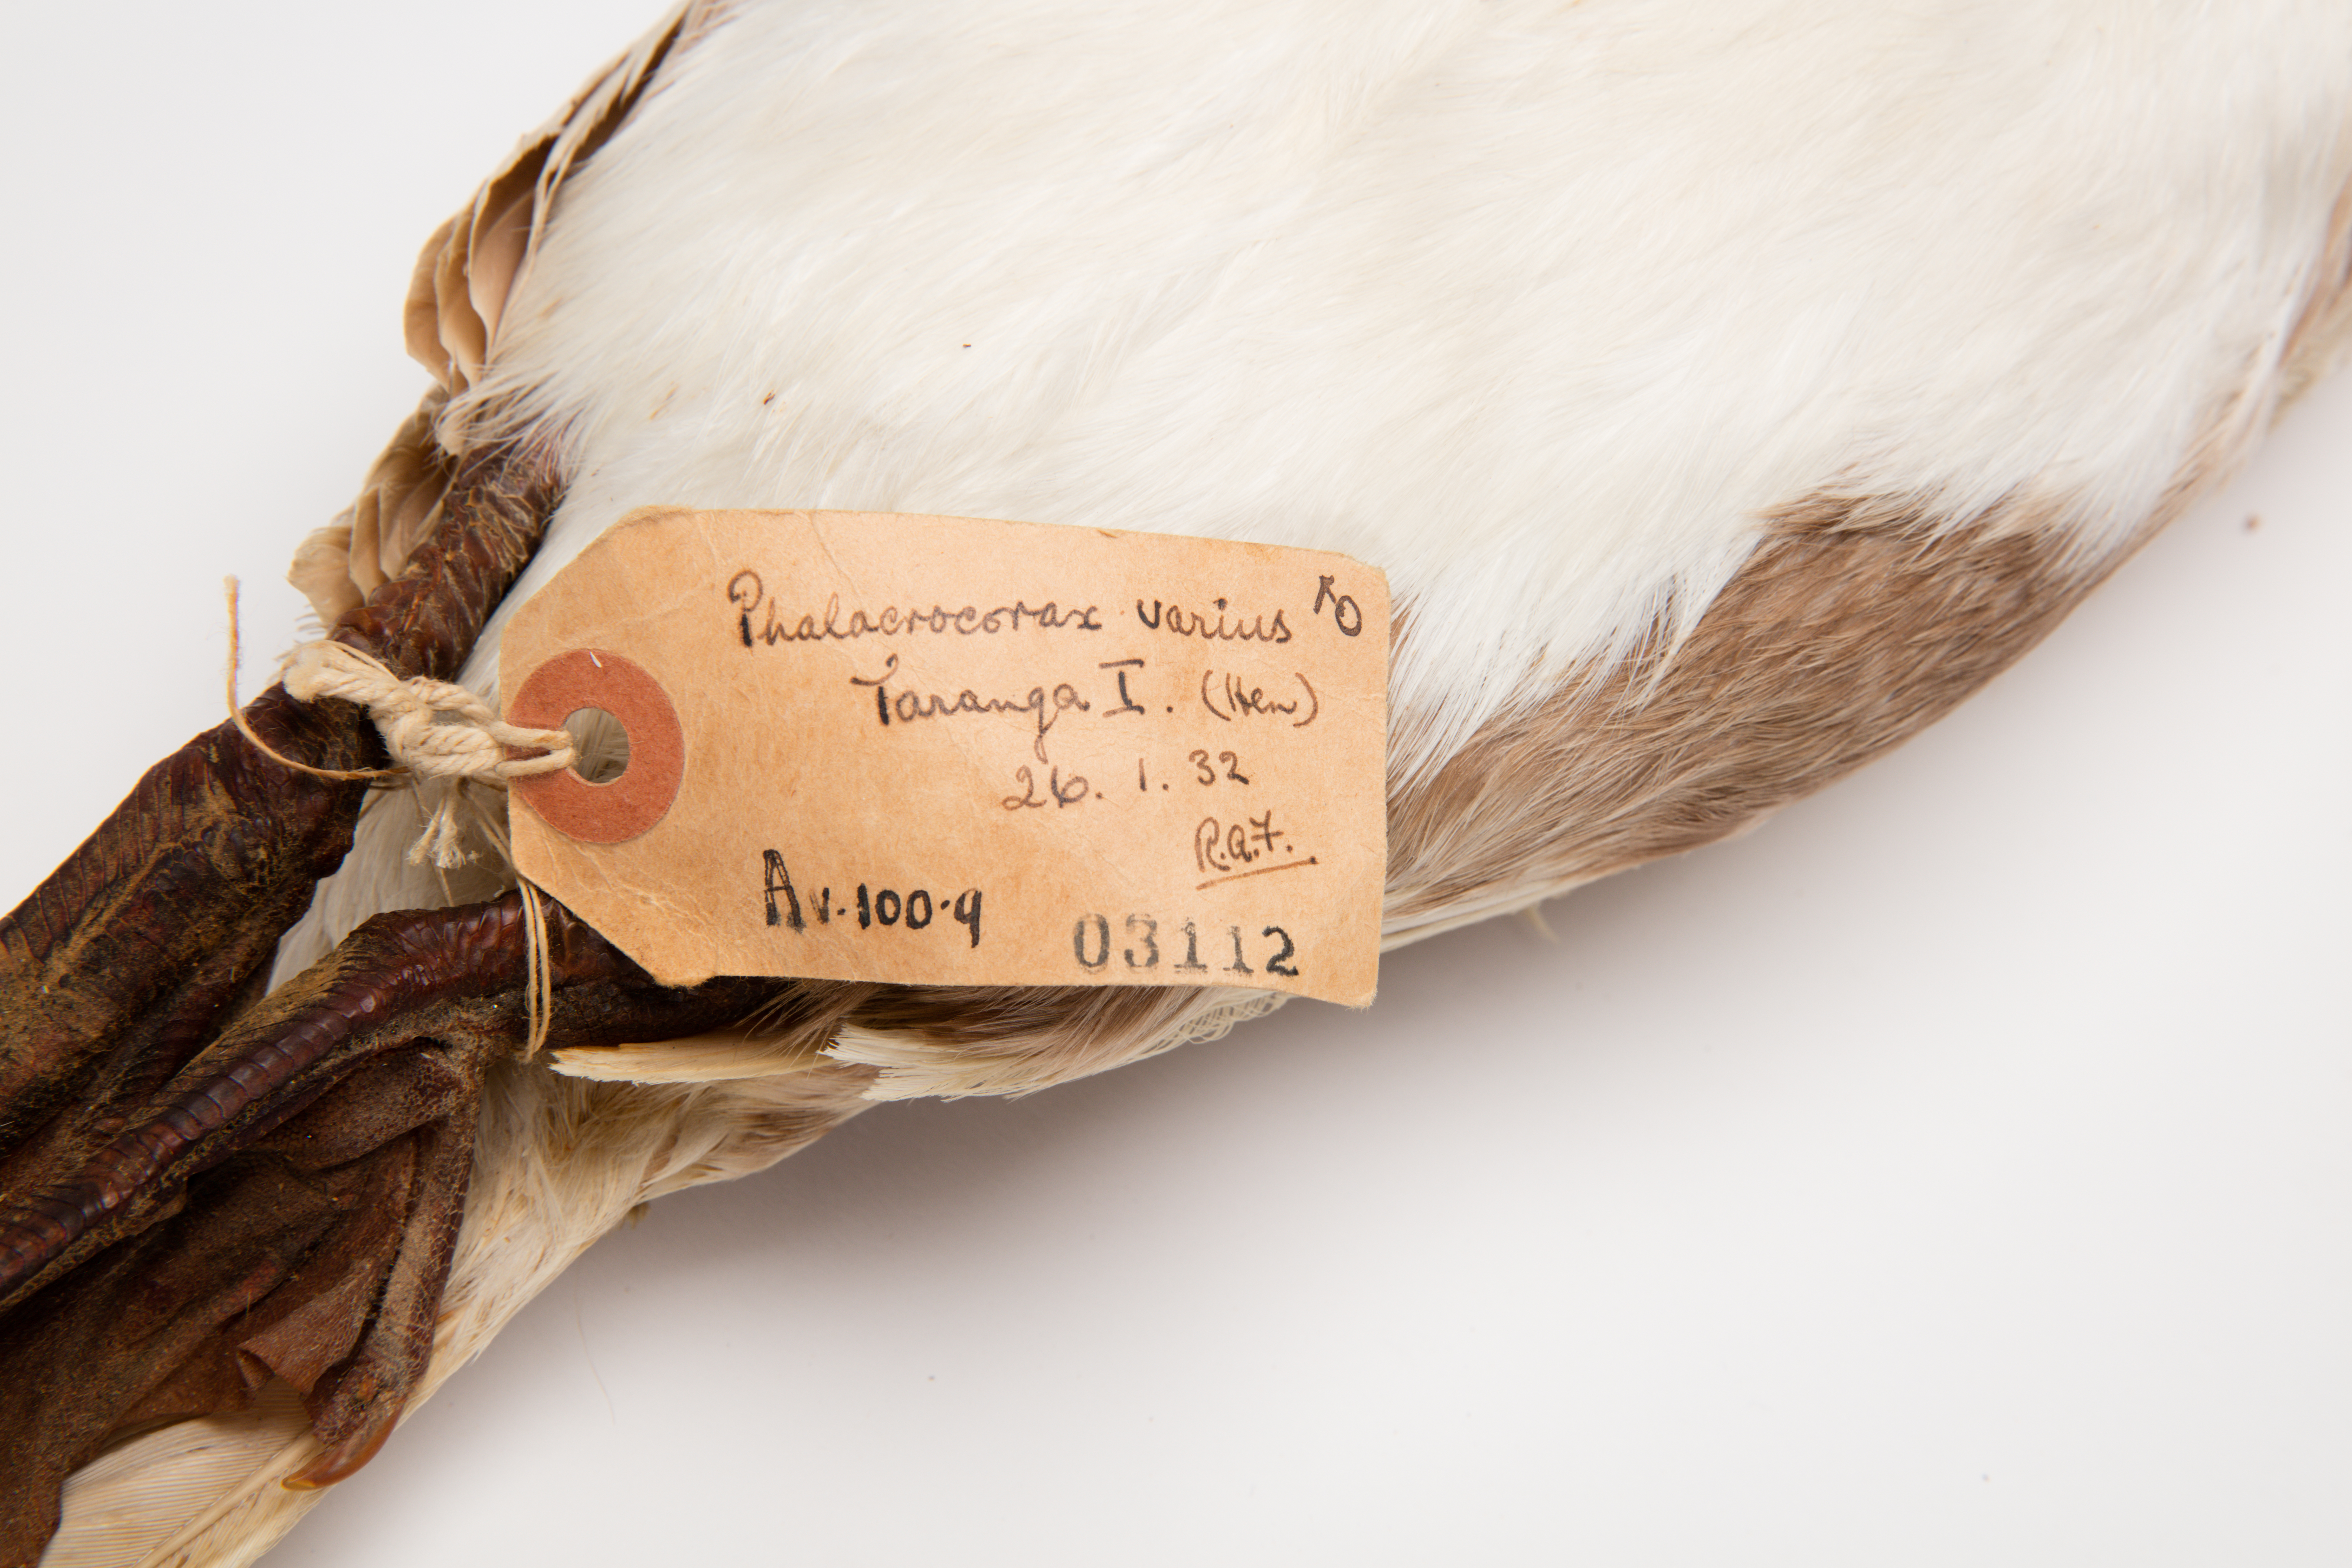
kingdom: Animalia
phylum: Chordata
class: Aves
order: Suliformes
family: Phalacrocoracidae
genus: Phalacrocorax
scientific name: Phalacrocorax varius
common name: Pied cormorant
